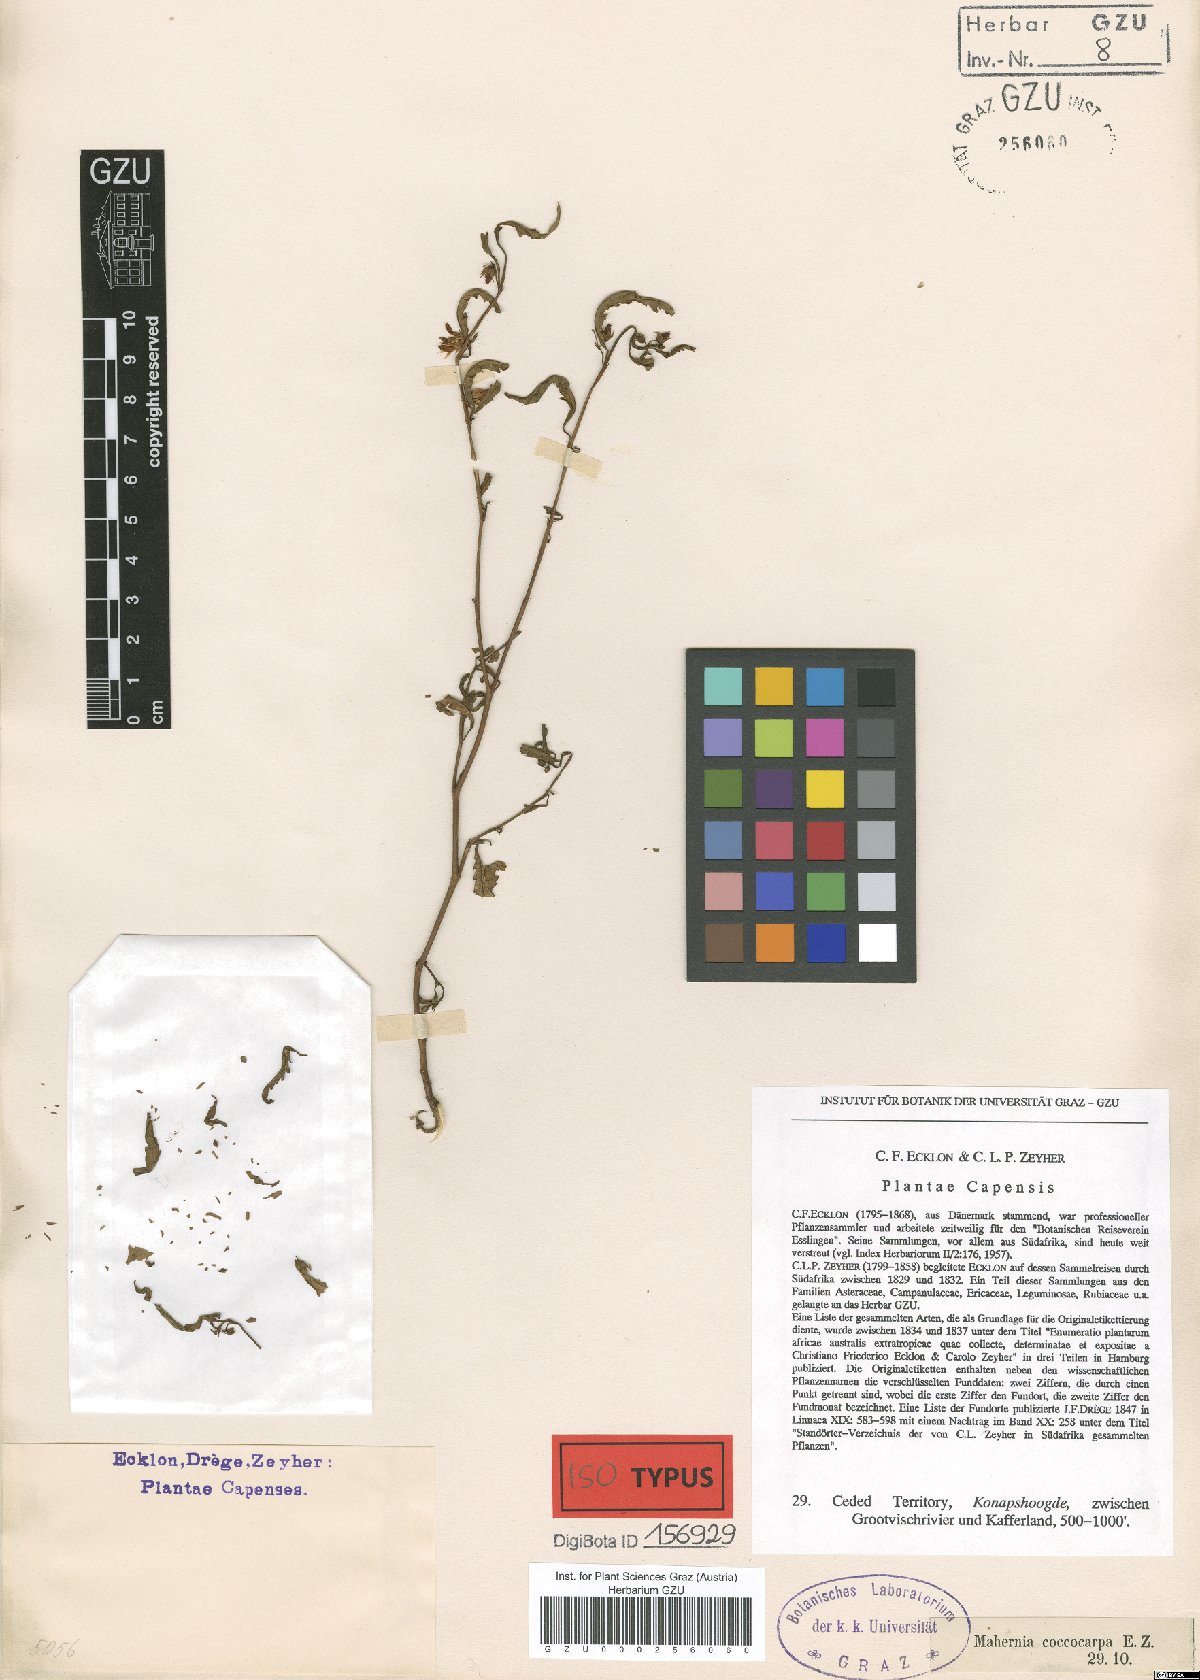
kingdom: Plantae
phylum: Tracheophyta
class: Magnoliopsida
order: Malvales
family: Malvaceae
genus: Hermannia
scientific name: Hermannia coccocarpa
